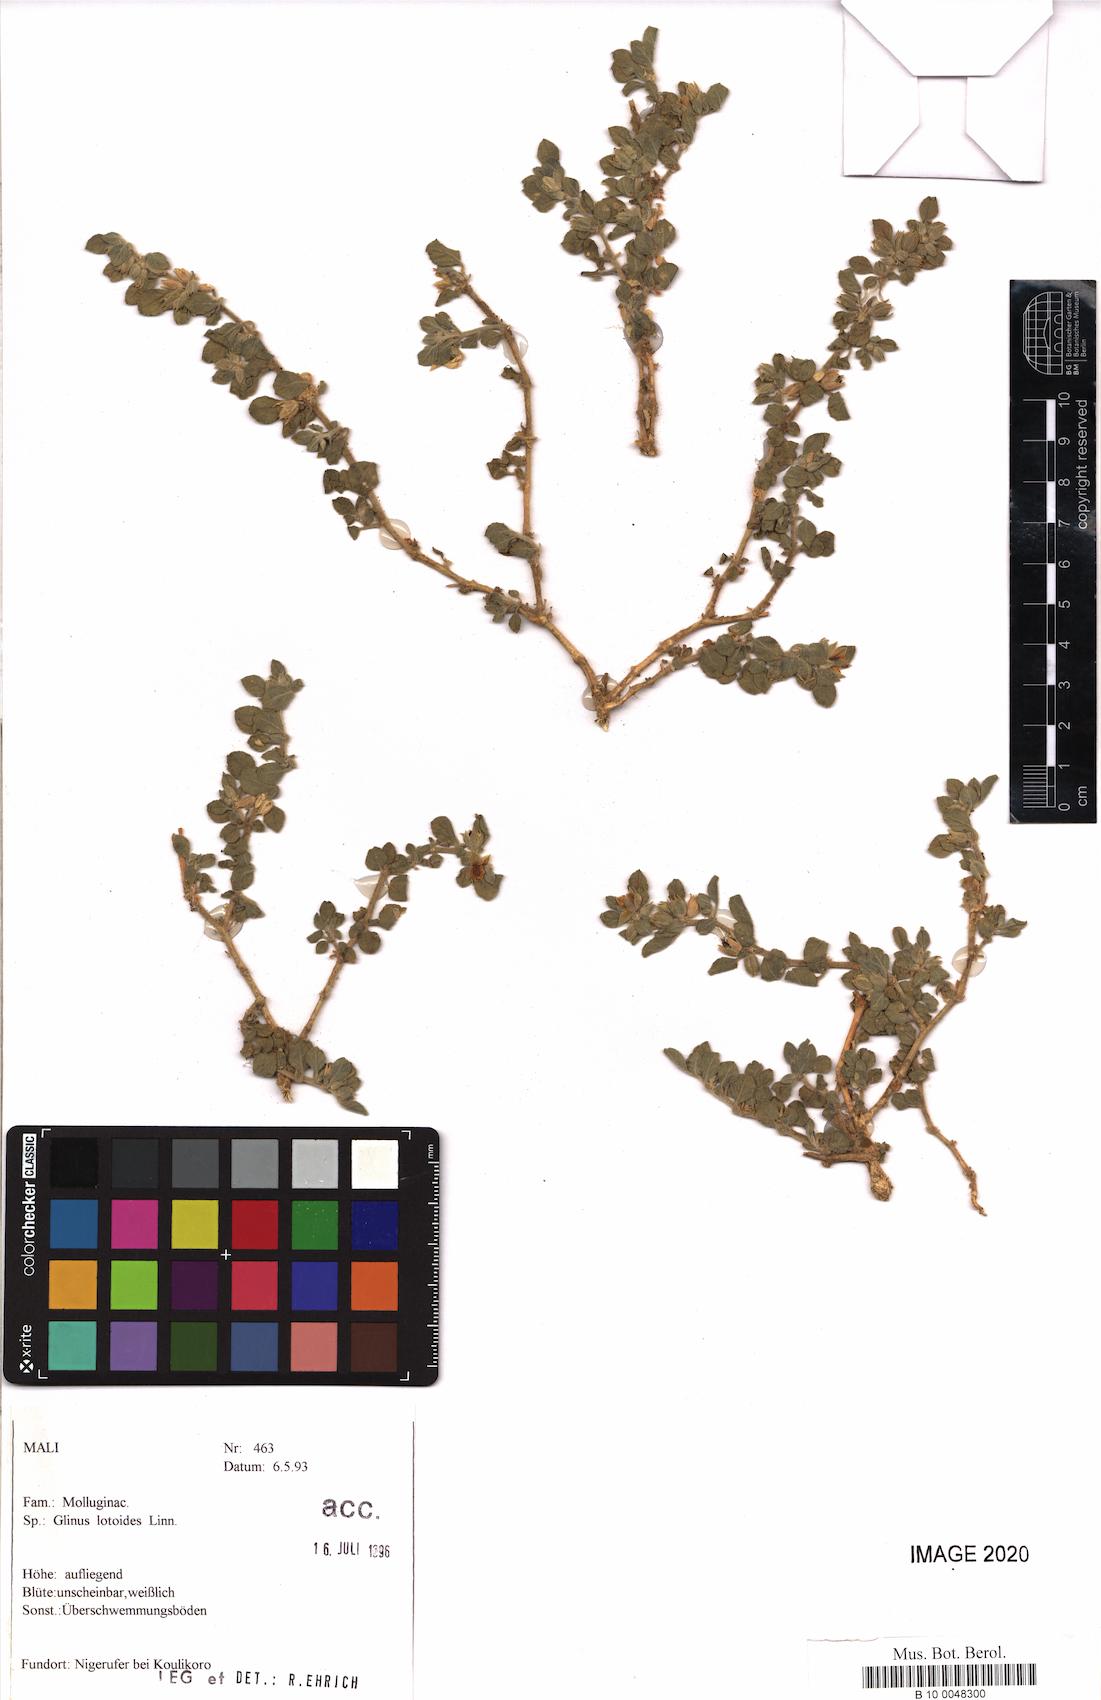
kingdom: Plantae
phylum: Tracheophyta
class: Magnoliopsida
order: Caryophyllales
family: Molluginaceae
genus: Glinus
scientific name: Glinus lotoides
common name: Lotus sweetjuice
